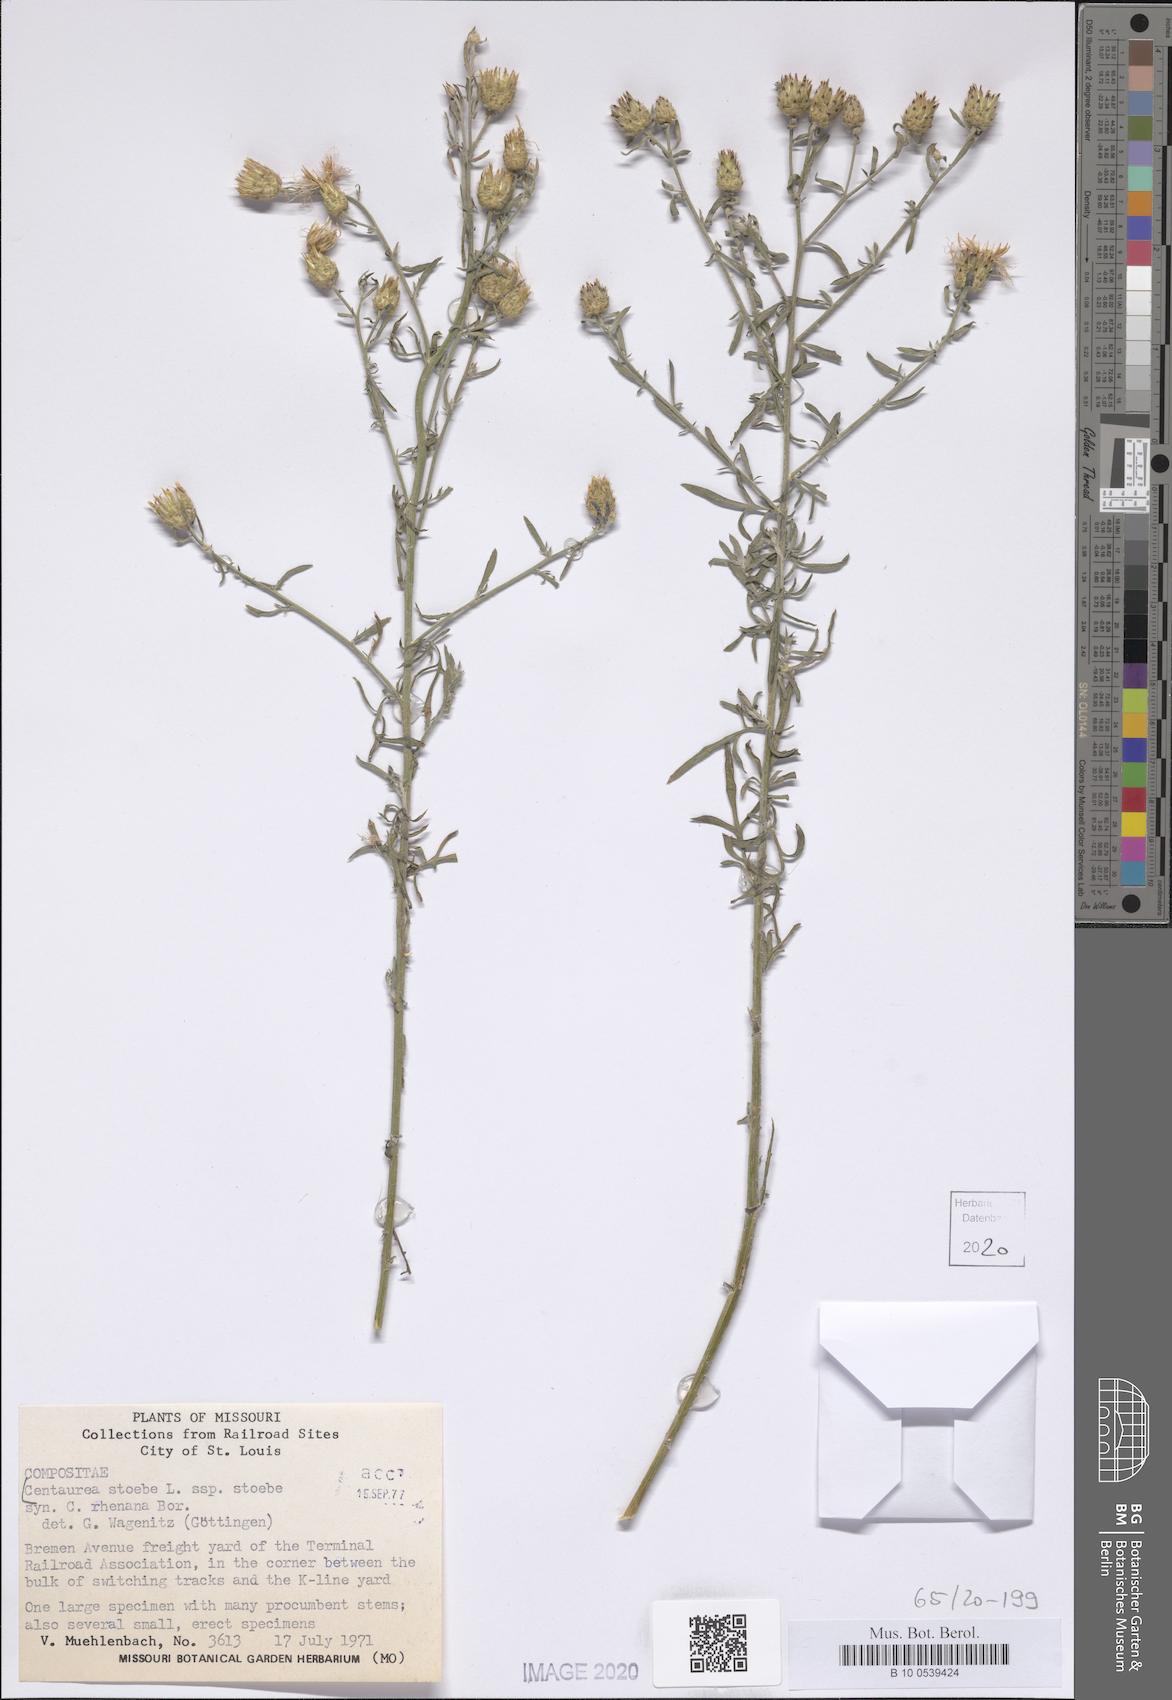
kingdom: Plantae
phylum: Tracheophyta
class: Magnoliopsida
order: Asterales
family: Asteraceae
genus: Centaurea
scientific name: Centaurea stoebe
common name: Spotted knapweed
